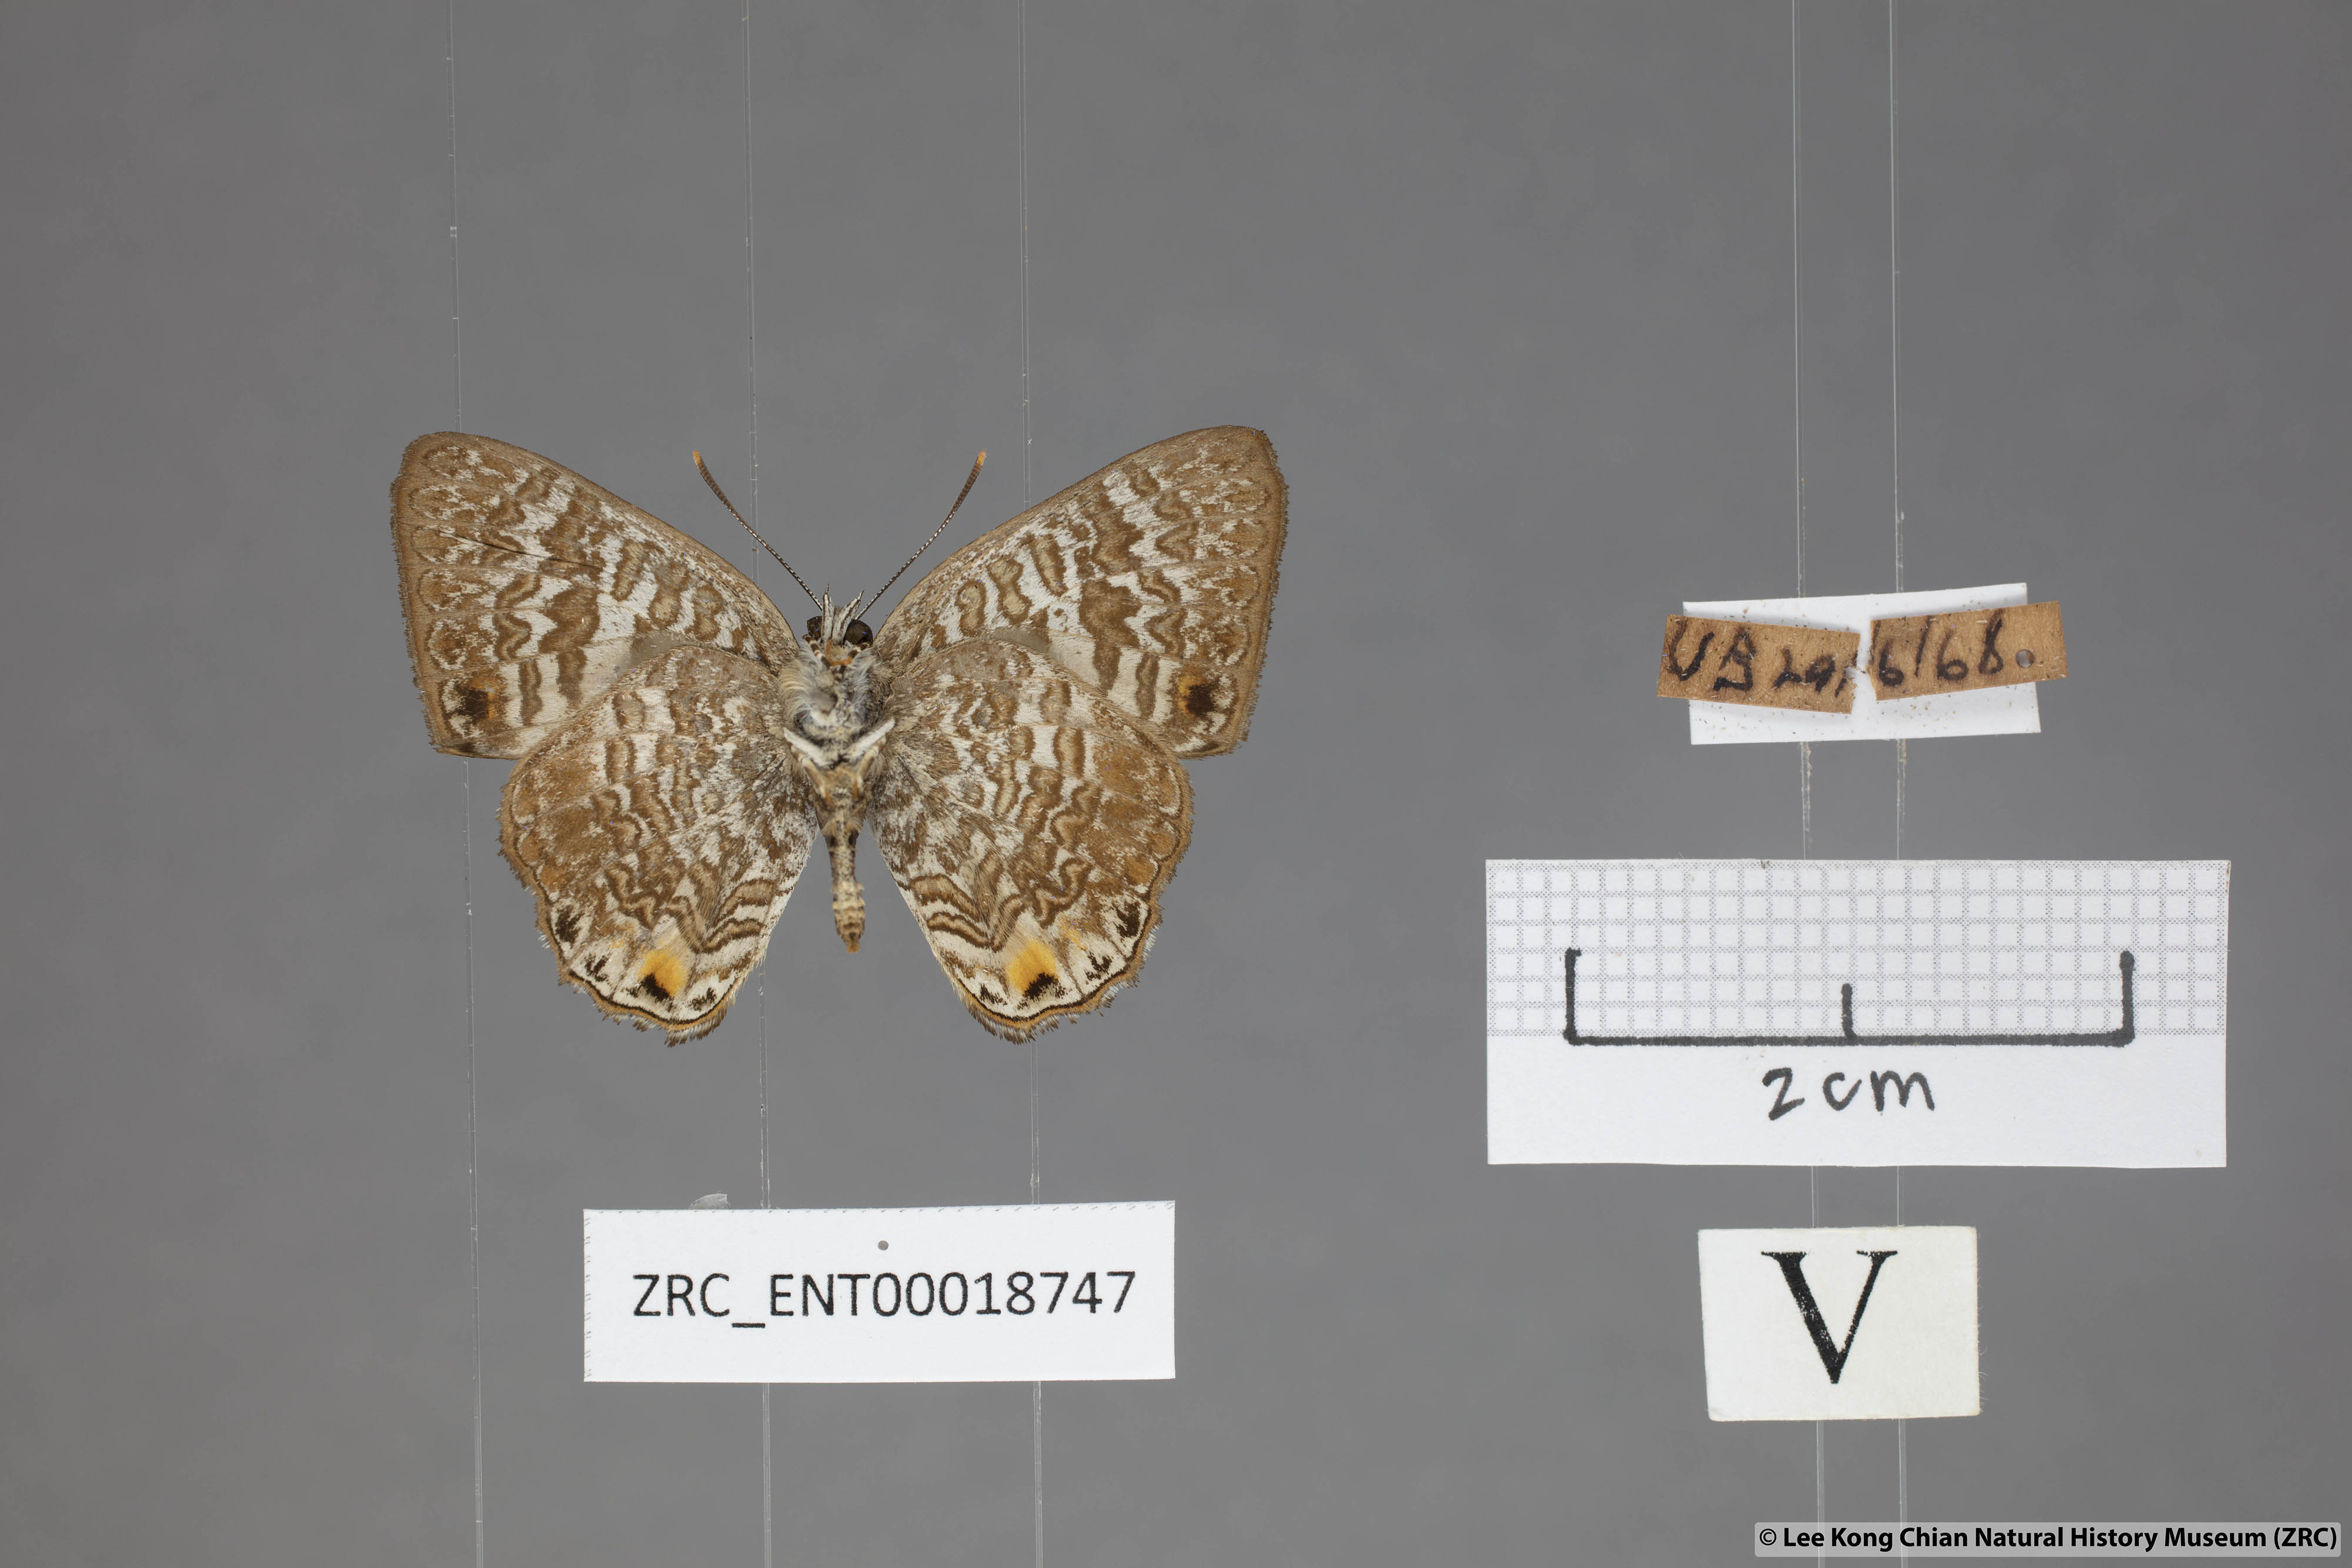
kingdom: Animalia
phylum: Arthropoda
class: Insecta
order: Lepidoptera
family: Lycaenidae
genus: Poritia
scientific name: Poritia erycinoides
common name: Blue gem
